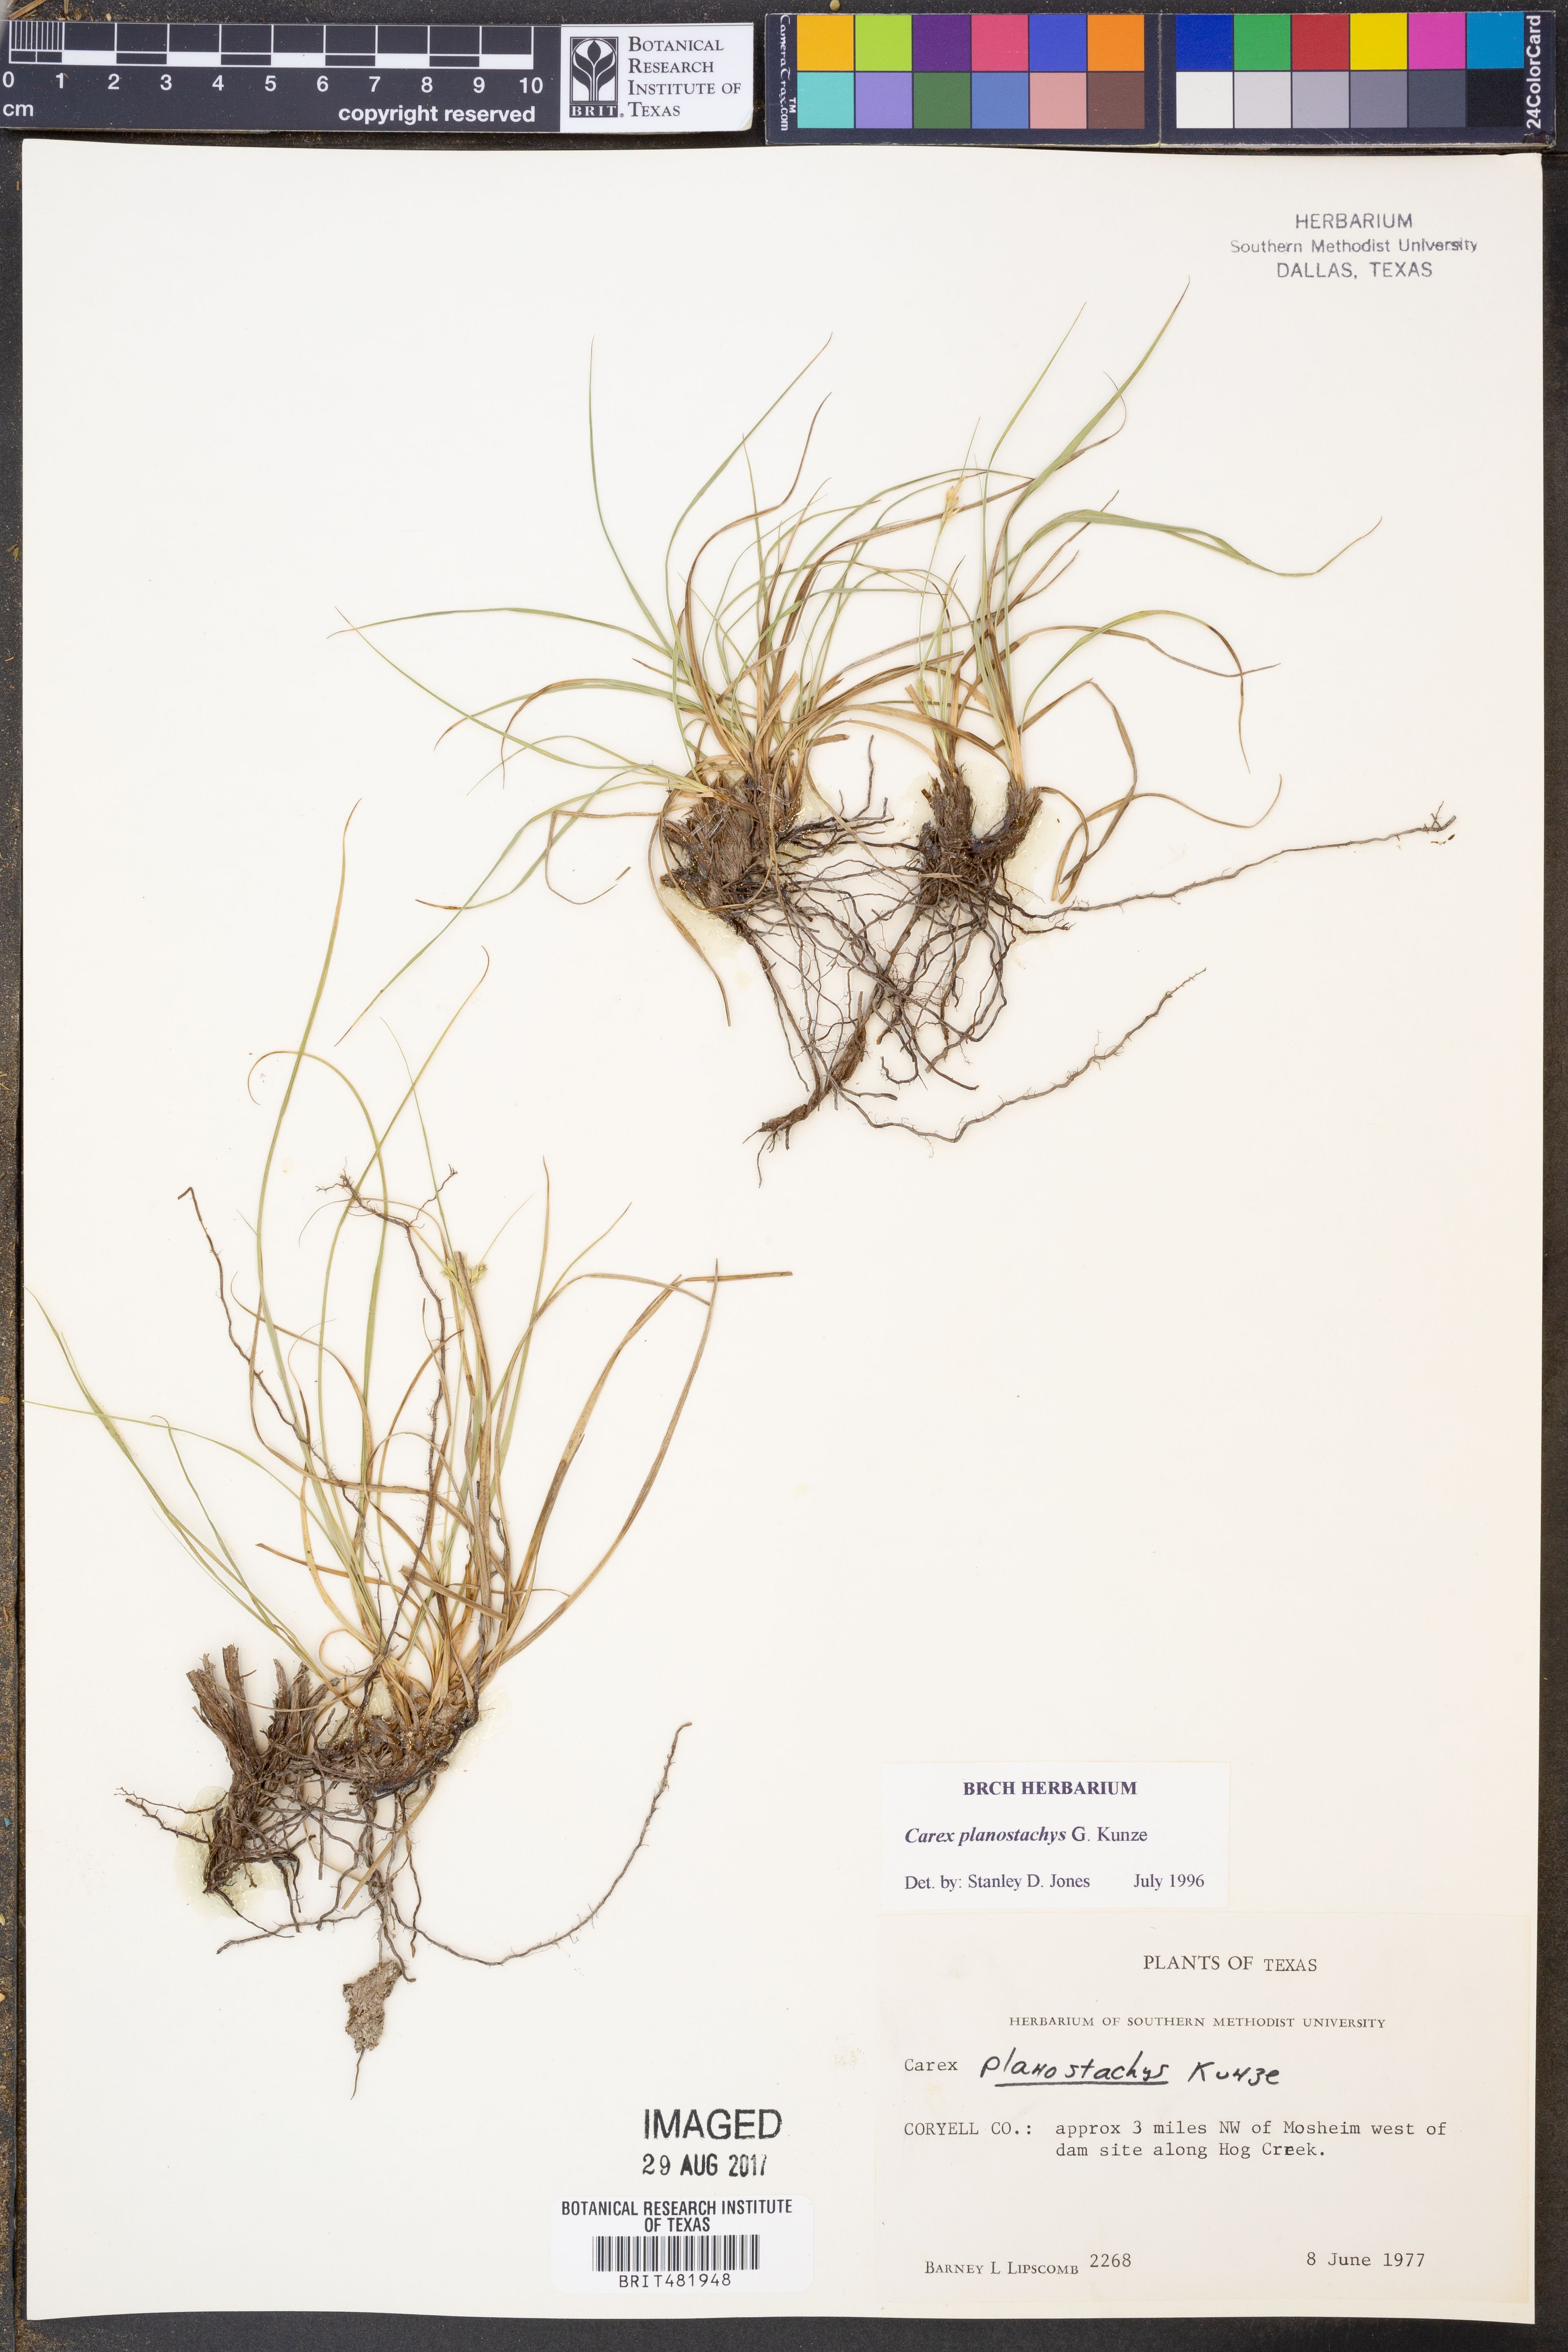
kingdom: Plantae
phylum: Tracheophyta
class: Liliopsida
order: Poales
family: Cyperaceae
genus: Carex
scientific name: Carex planostachys
